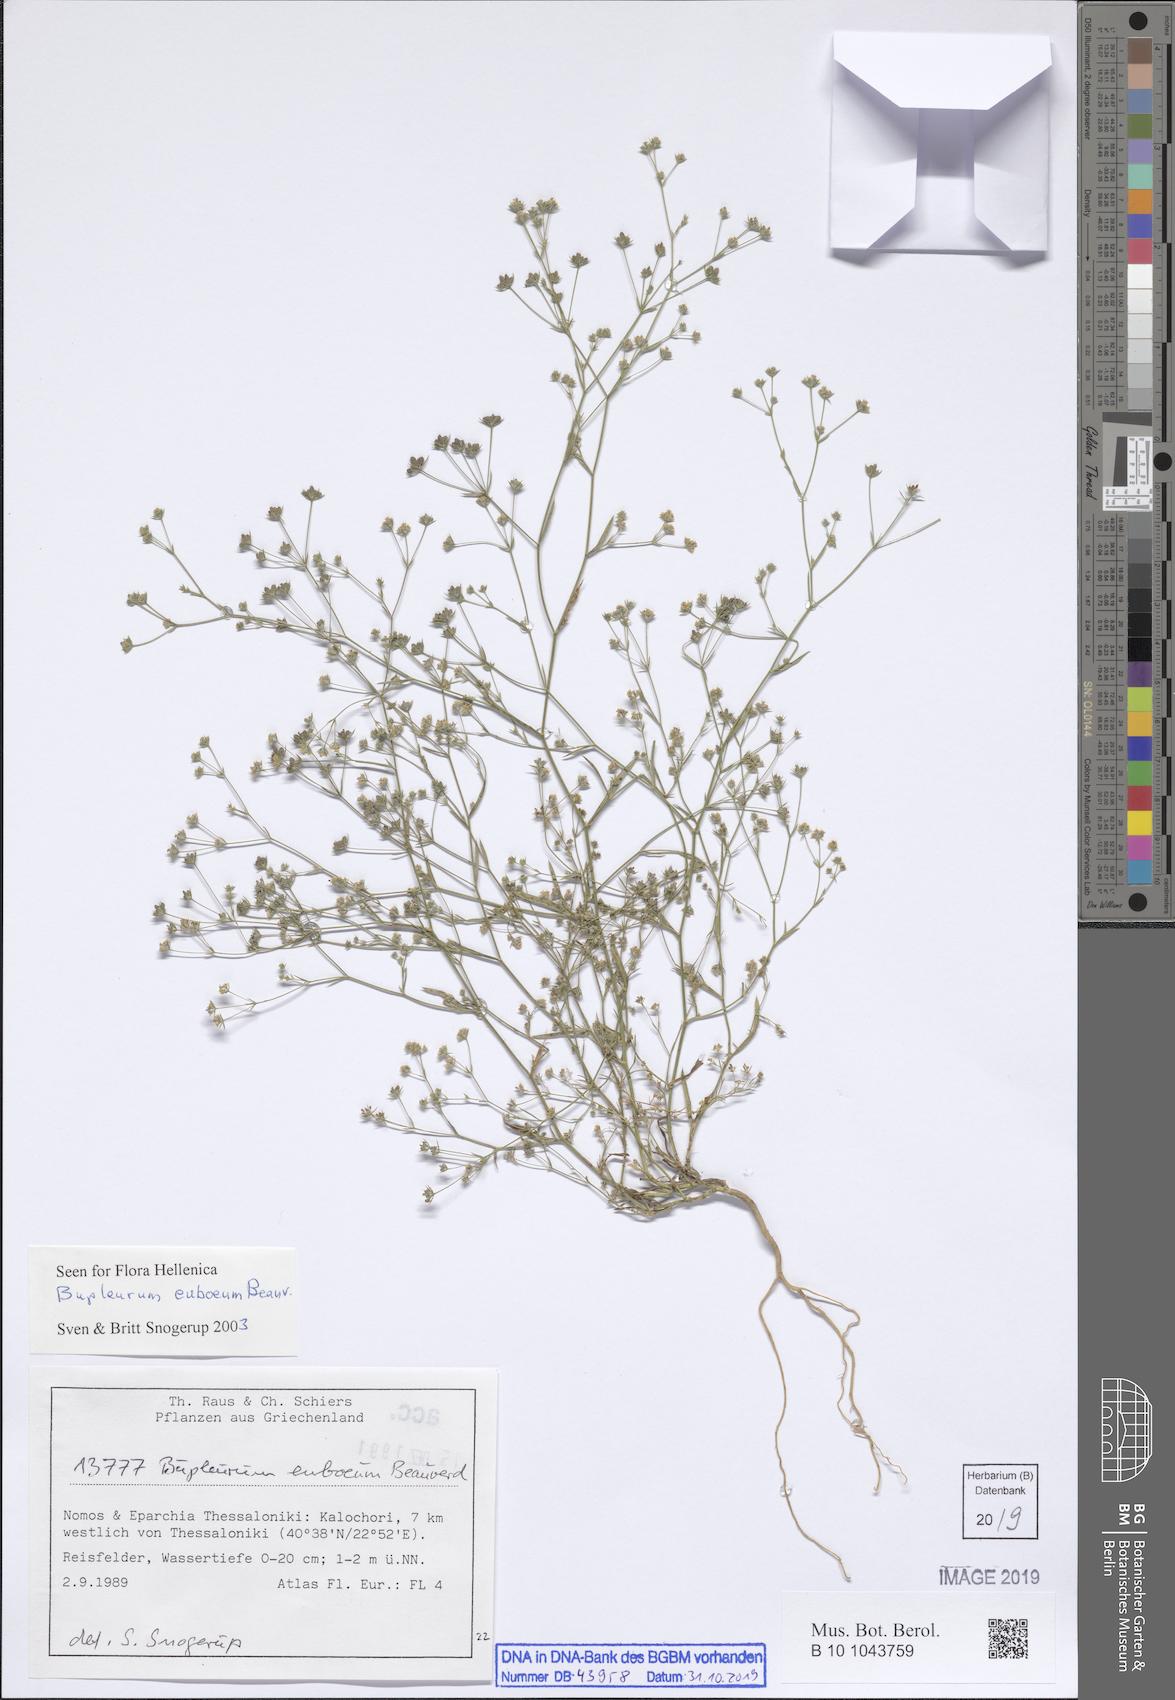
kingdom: Plantae
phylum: Tracheophyta
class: Magnoliopsida
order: Apiales
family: Apiaceae
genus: Bupleurum
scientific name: Bupleurum euboeum
